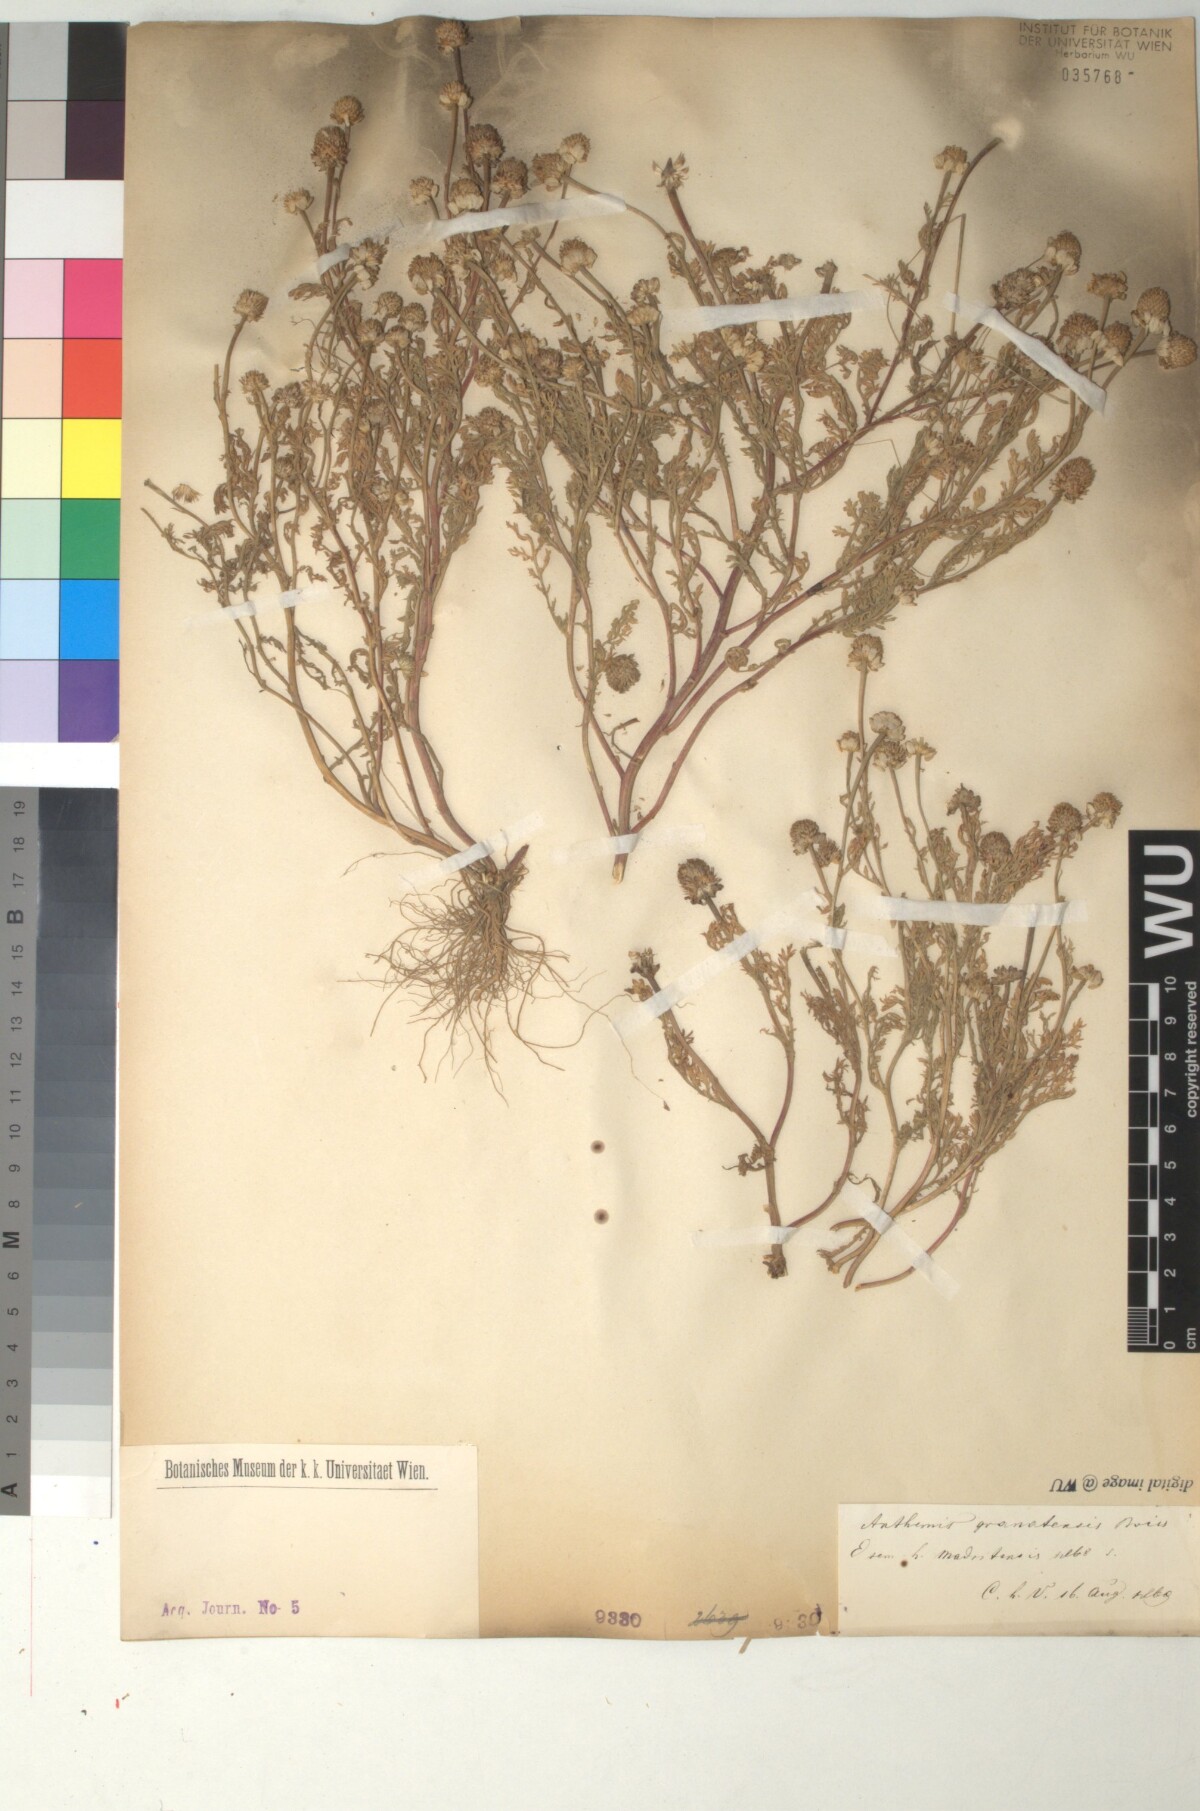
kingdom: Plantae
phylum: Tracheophyta
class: Magnoliopsida
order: Asterales
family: Asteraceae
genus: Anthemis
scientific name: Anthemis arvensis
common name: Corn chamomile
